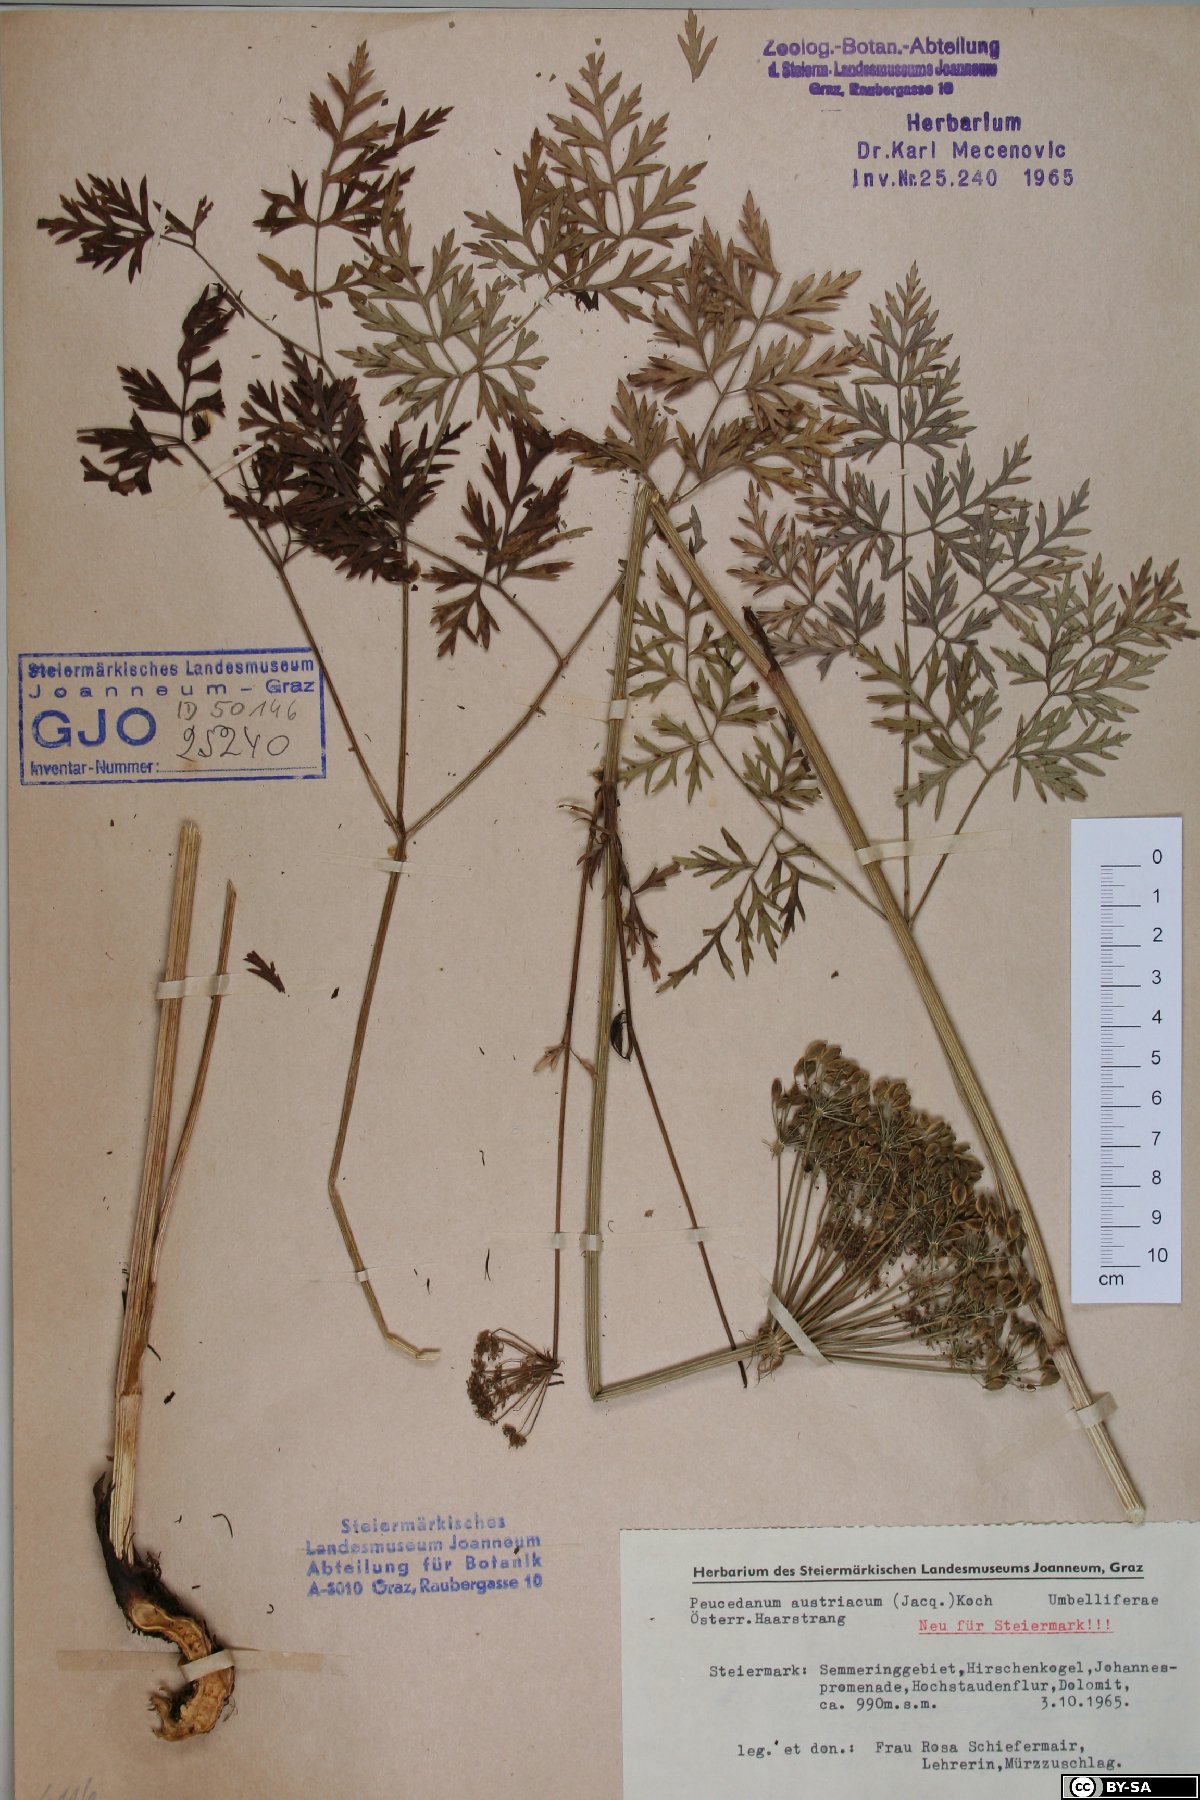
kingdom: Plantae
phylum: Tracheophyta
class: Magnoliopsida
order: Apiales
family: Apiaceae
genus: Peucedanum
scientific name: Peucedanum austriacum
